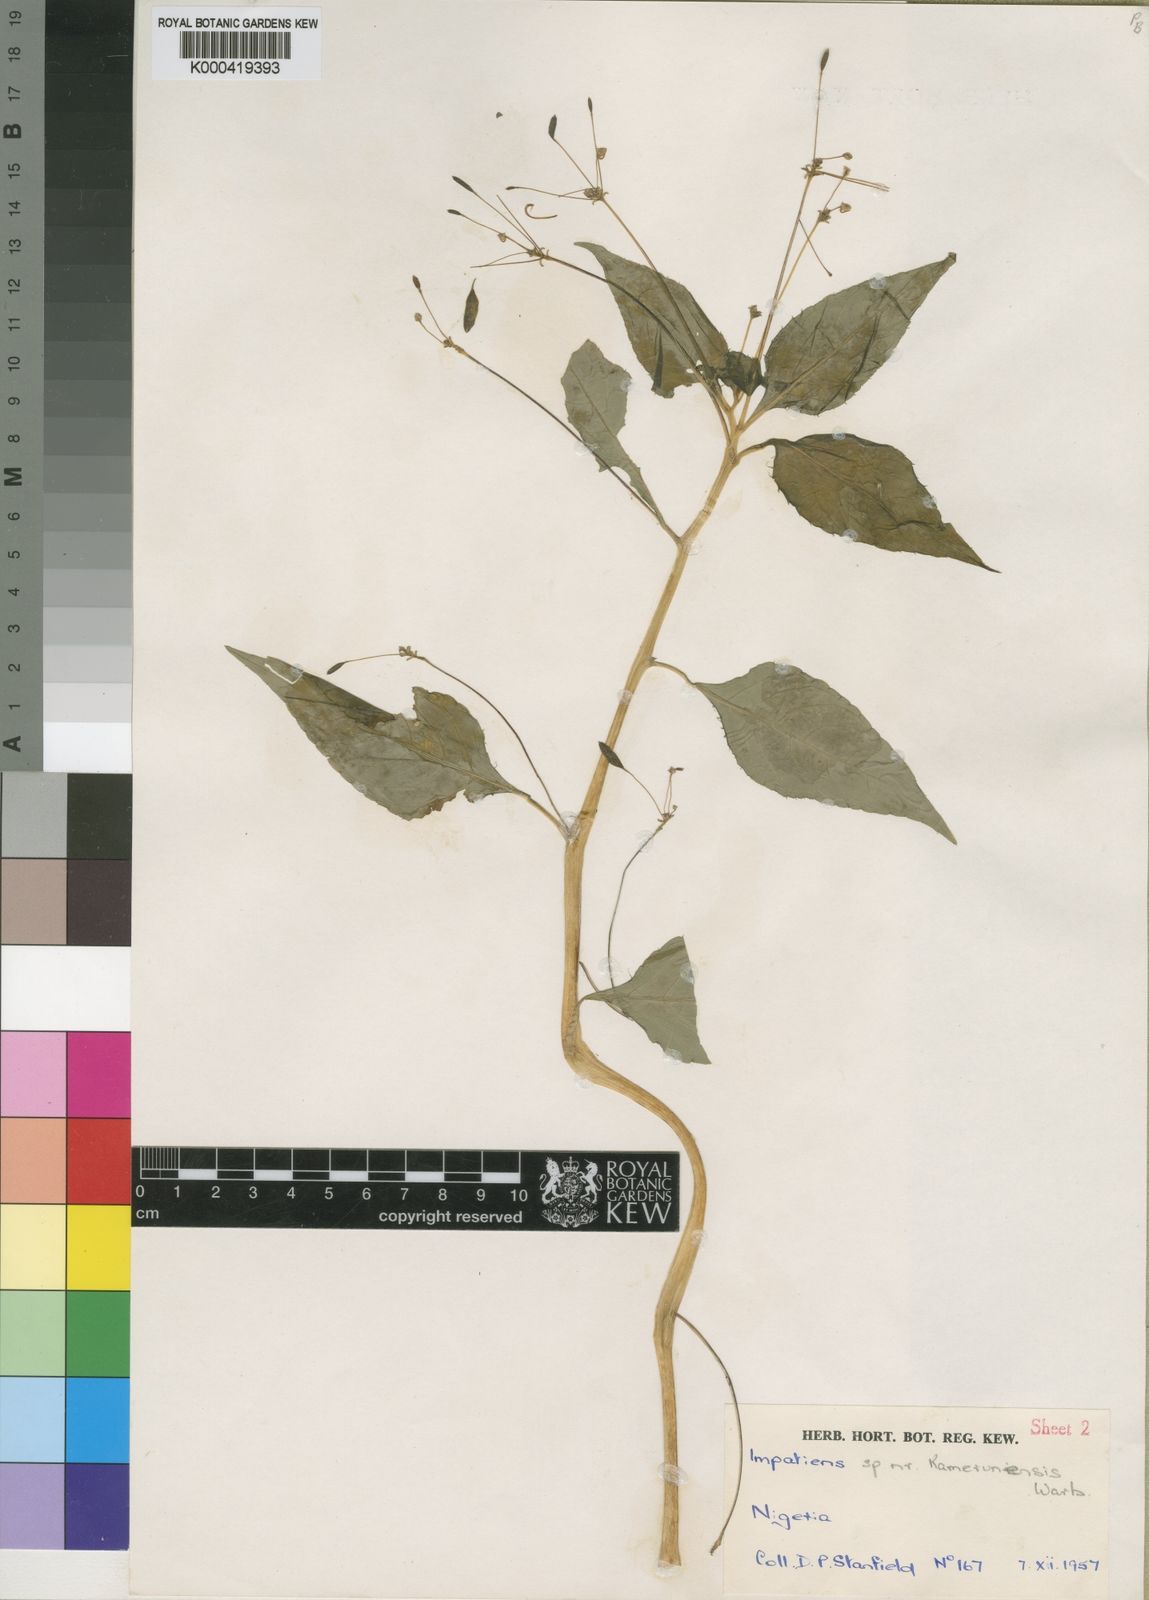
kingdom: Plantae
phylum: Tracheophyta
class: Magnoliopsida
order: Ericales
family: Balsaminaceae
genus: Impatiens
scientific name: Impatiens nigeriensis
